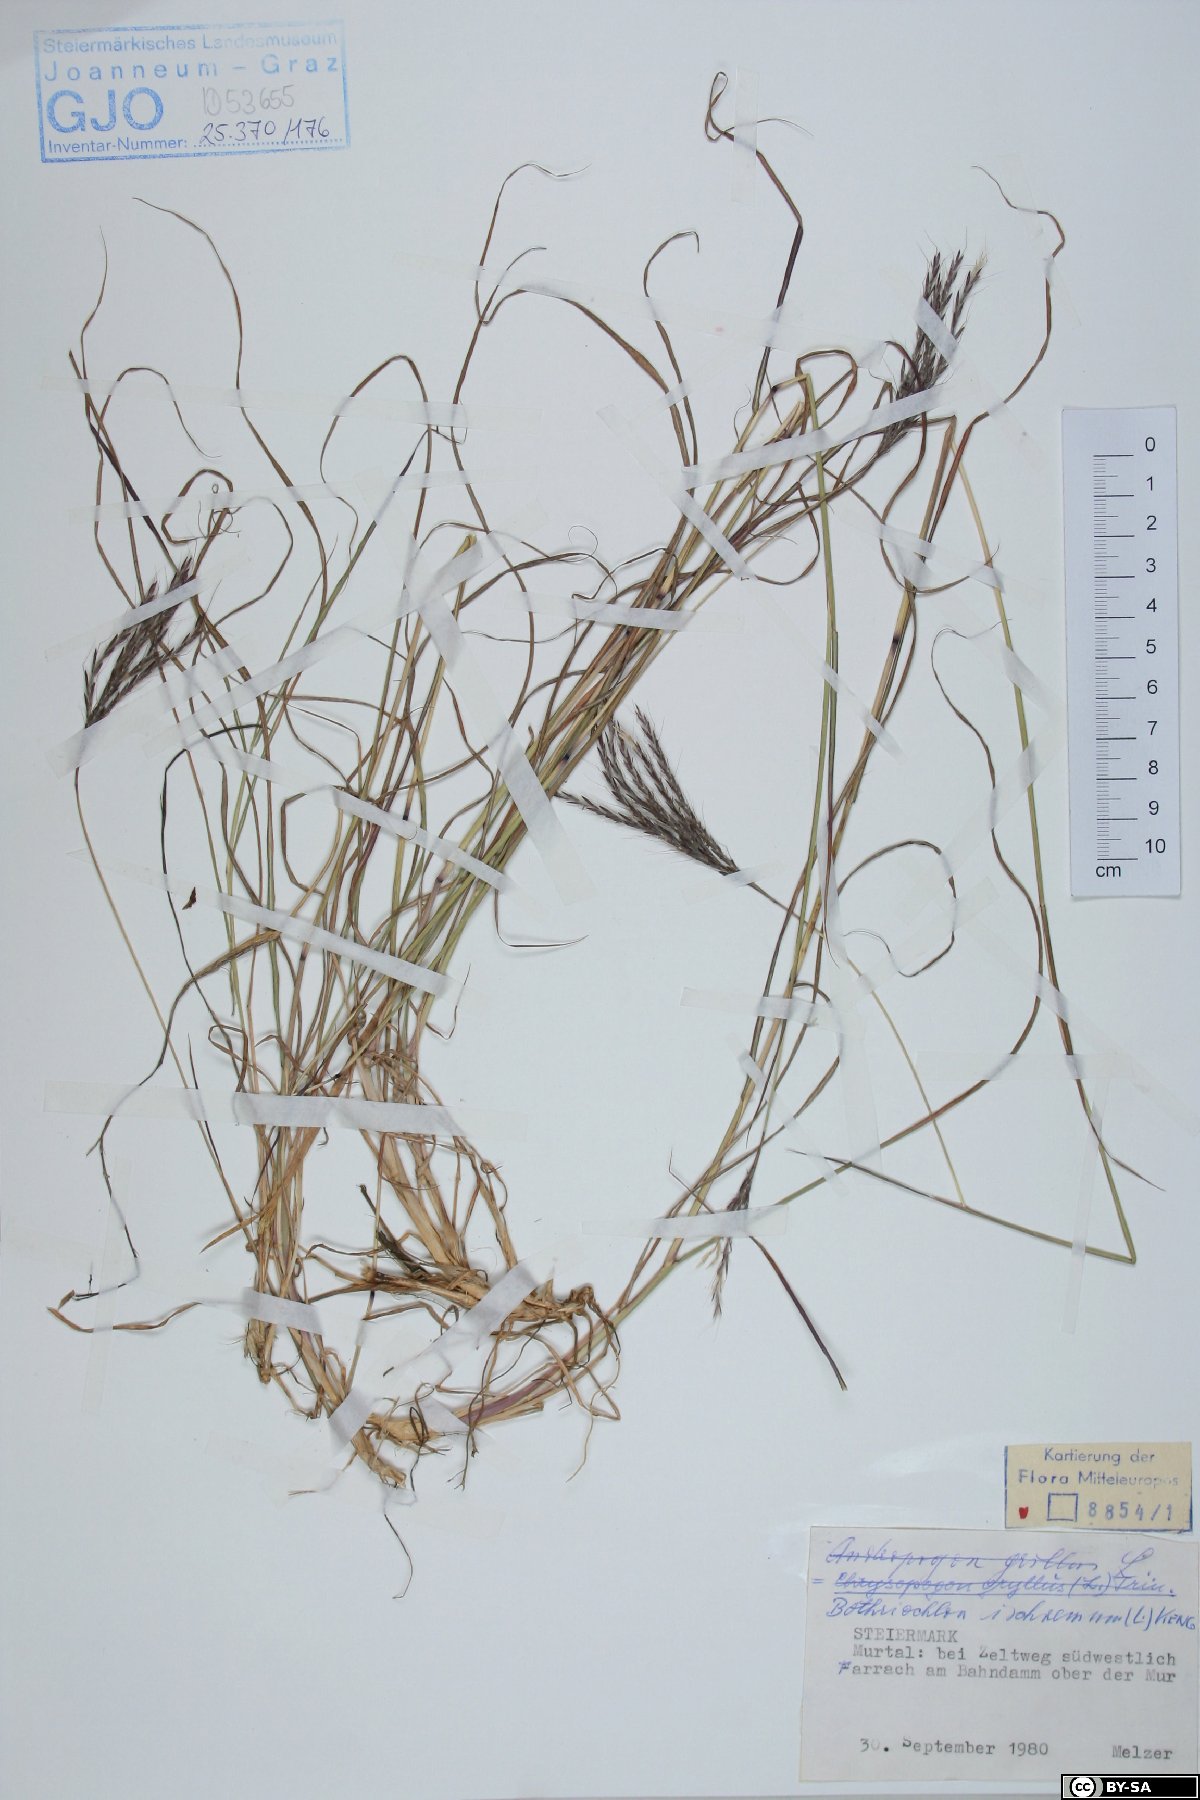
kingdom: Plantae
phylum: Tracheophyta
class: Liliopsida
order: Poales
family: Poaceae
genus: Bothriochloa
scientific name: Bothriochloa ischaemum
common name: Yellow bluestem
